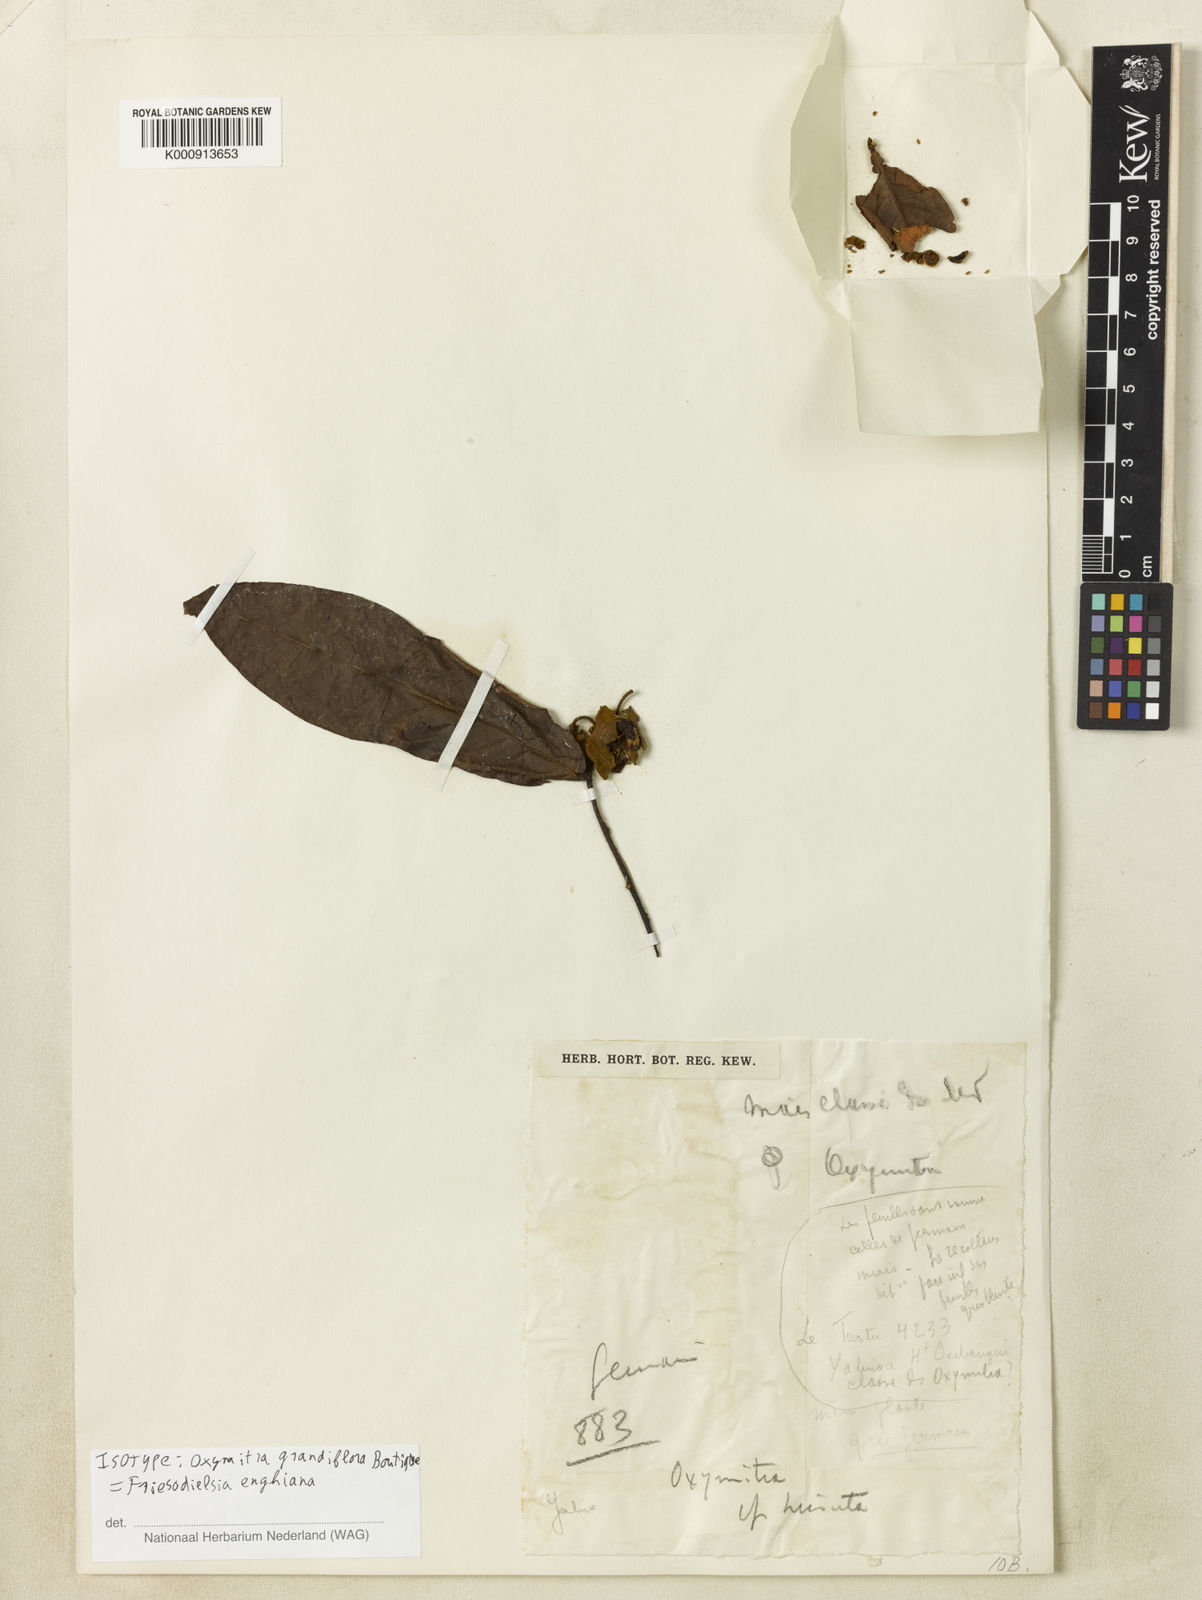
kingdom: Plantae
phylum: Tracheophyta
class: Magnoliopsida
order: Magnoliales
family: Annonaceae
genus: Friesodielsia
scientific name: Friesodielsia enghiana
